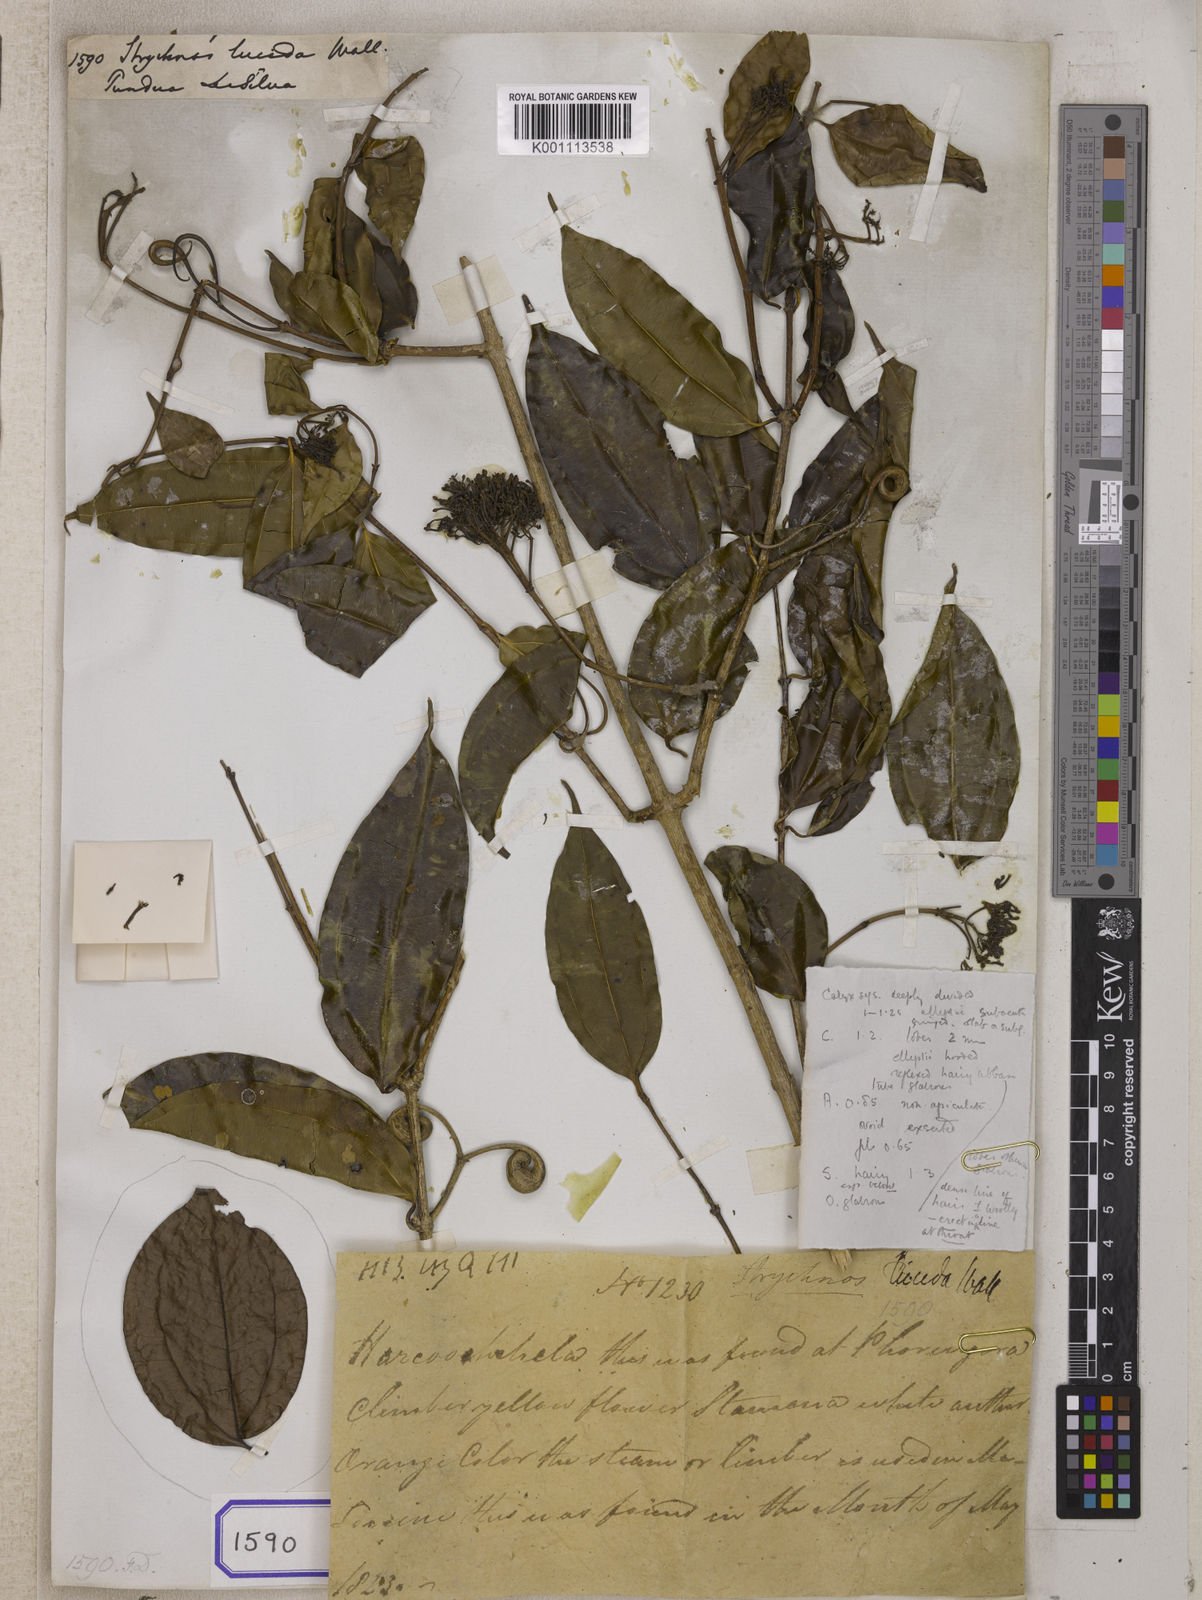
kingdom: Plantae
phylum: Tracheophyta
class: Magnoliopsida
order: Gentianales
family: Loganiaceae
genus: Strychnos
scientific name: Strychnos wallichiana
